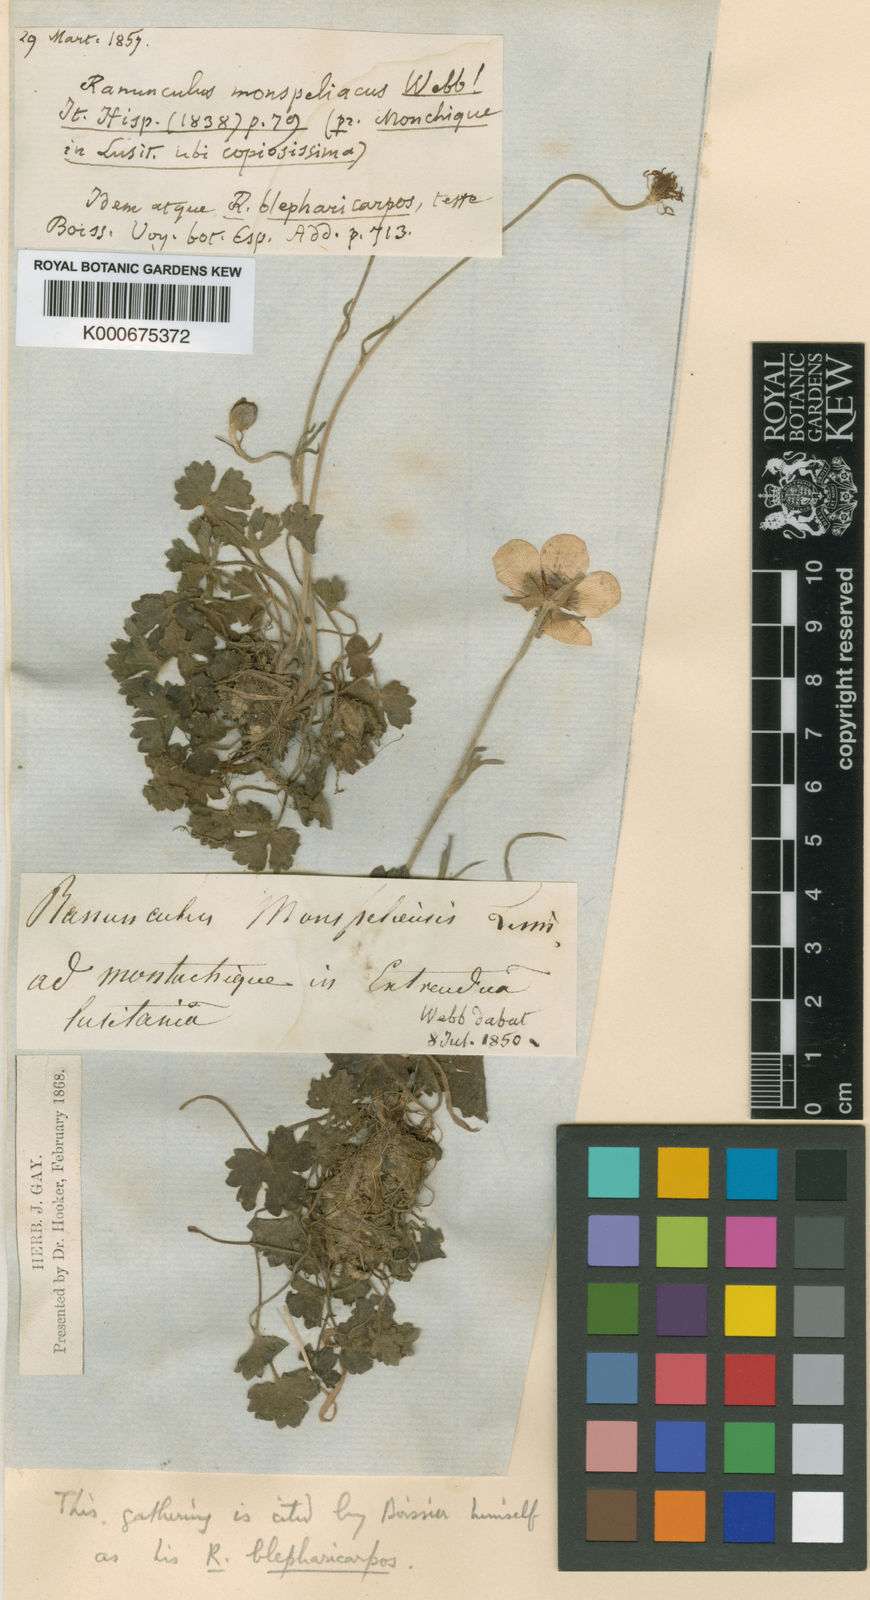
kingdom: Plantae
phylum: Tracheophyta
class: Magnoliopsida
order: Ranunculales
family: Ranunculaceae
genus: Ranunculus
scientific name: Ranunculus spicatus
